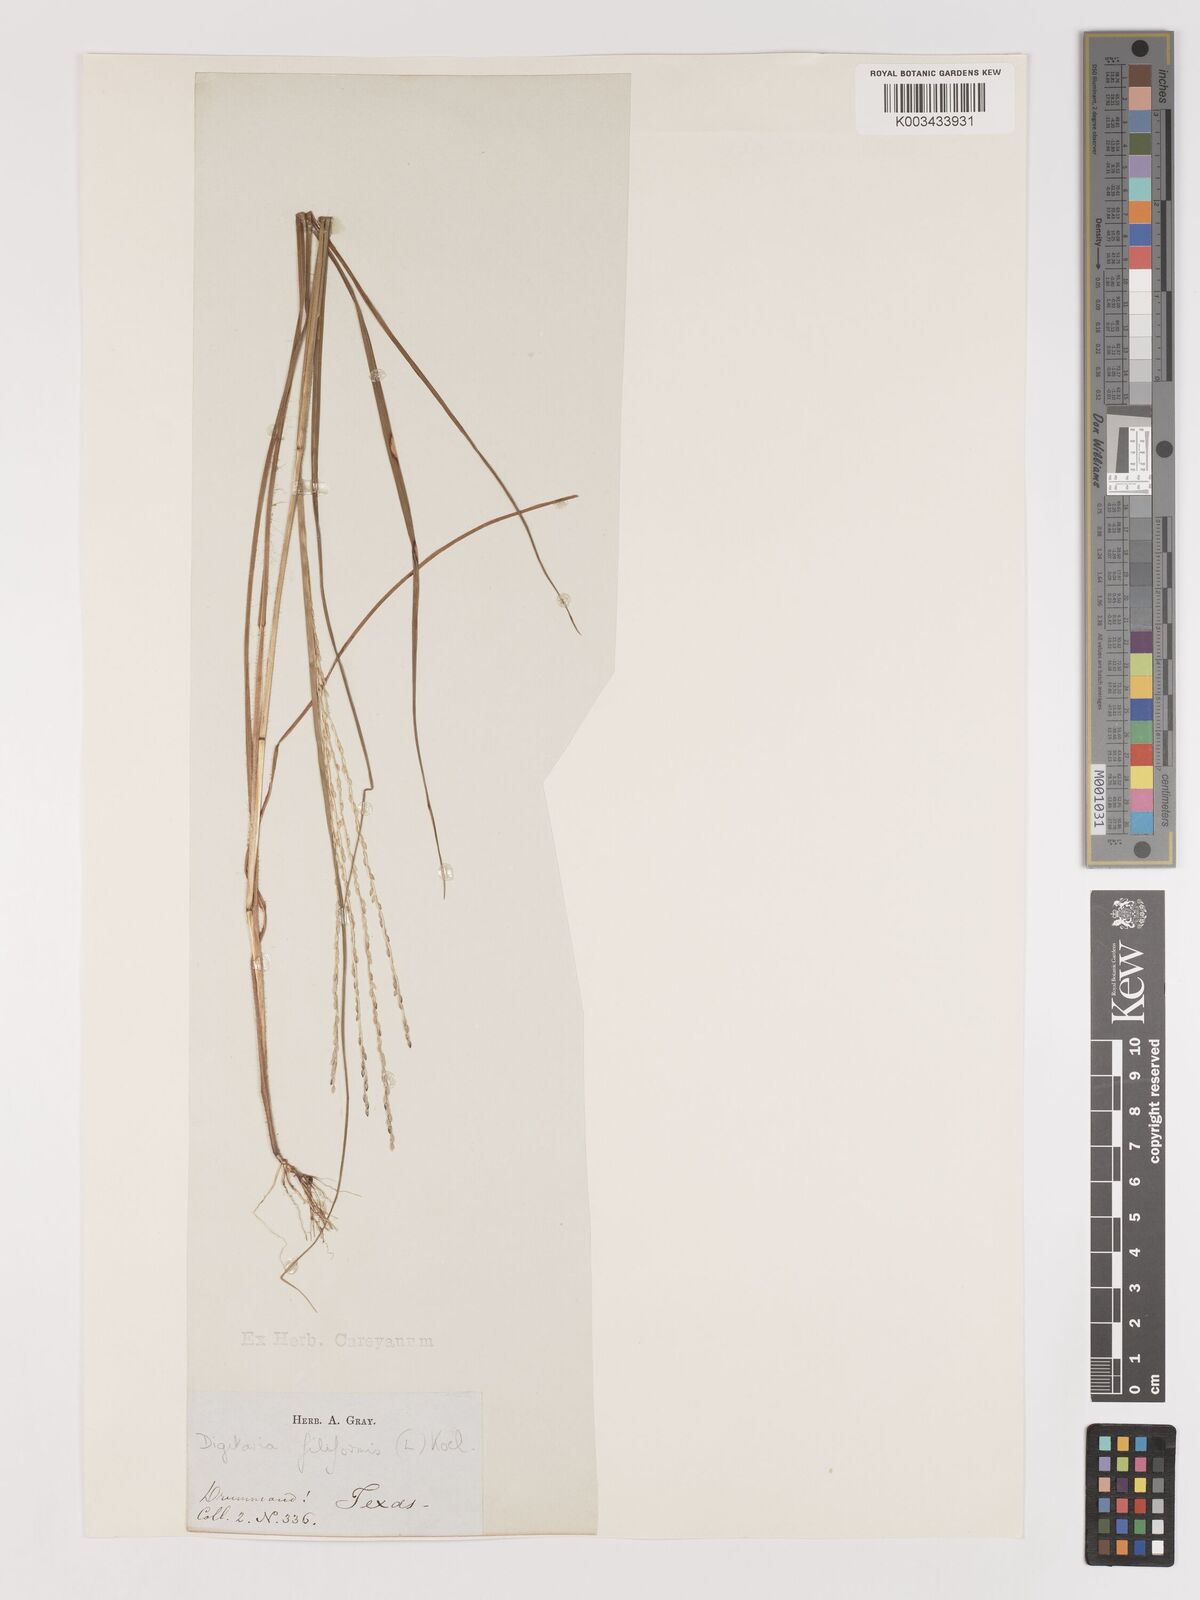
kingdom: Plantae
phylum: Tracheophyta
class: Liliopsida
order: Poales
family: Poaceae
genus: Digitaria
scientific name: Digitaria filiformis
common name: Slender crabgrass
